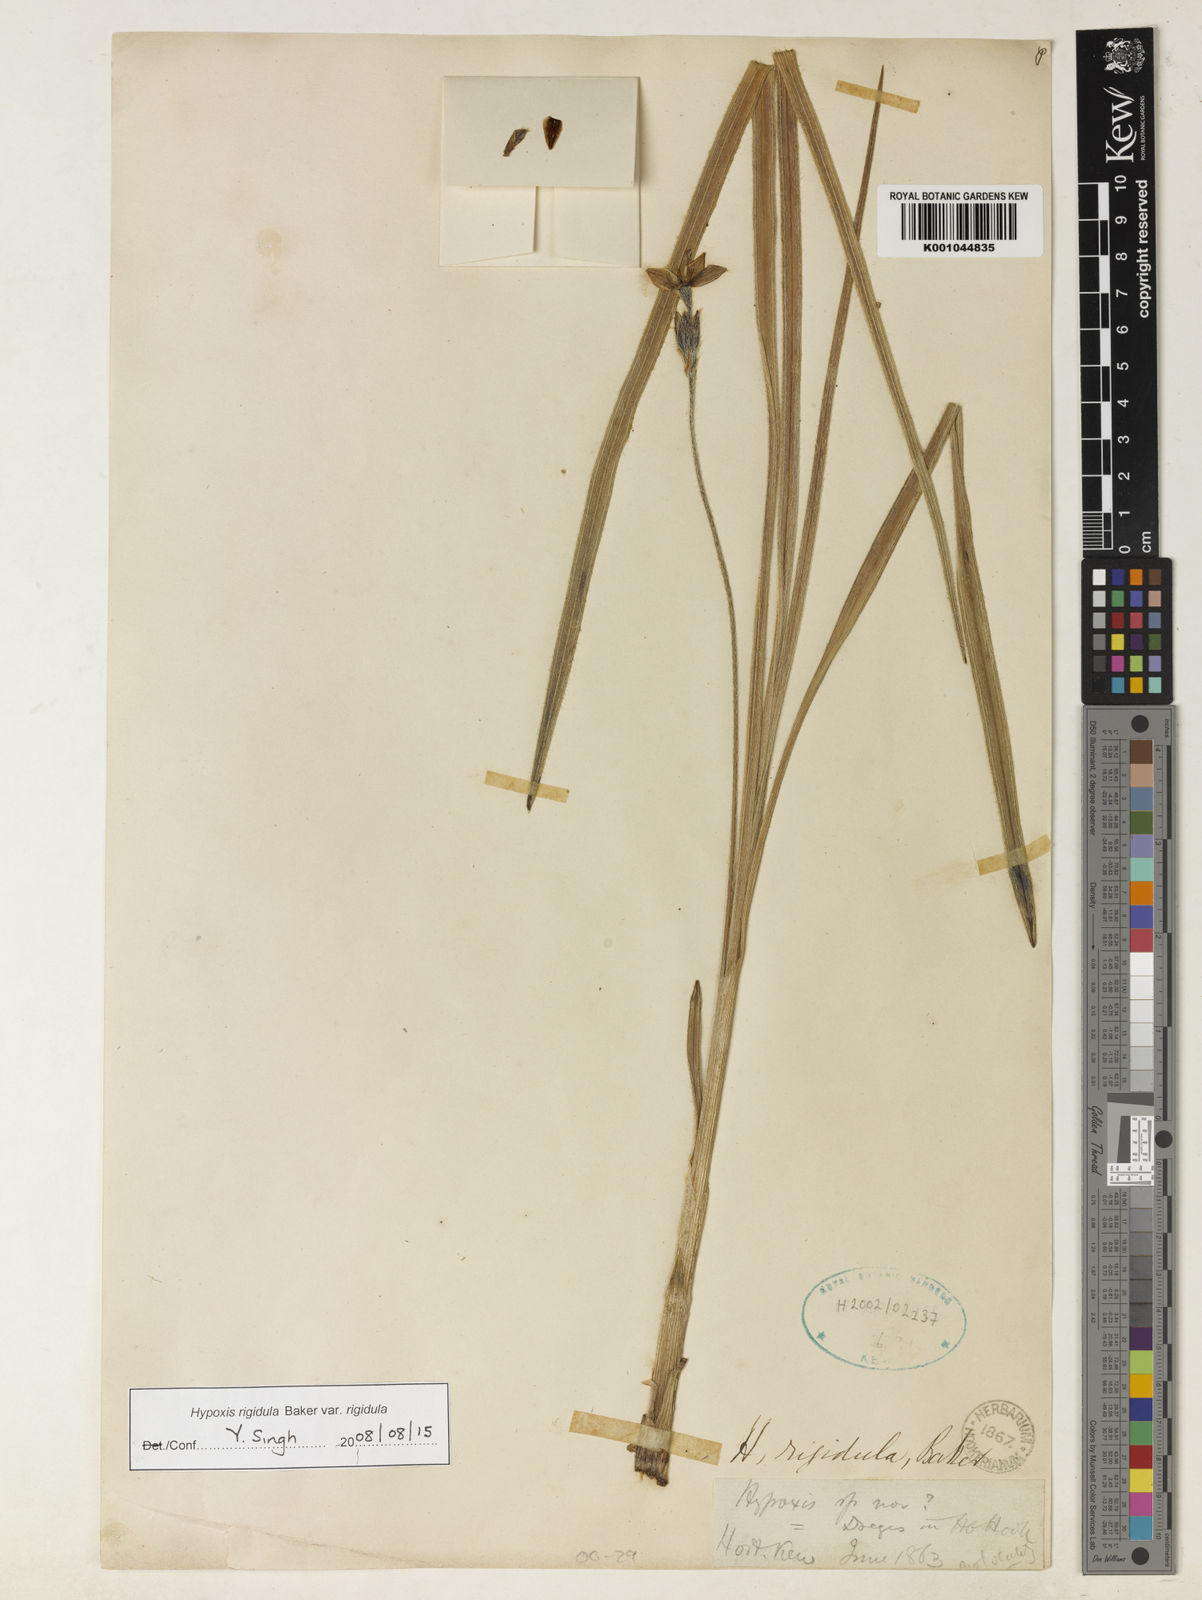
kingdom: Plantae
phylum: Tracheophyta
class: Liliopsida
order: Asparagales
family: Hypoxidaceae
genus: Hypoxis
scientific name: Hypoxis rigidula
